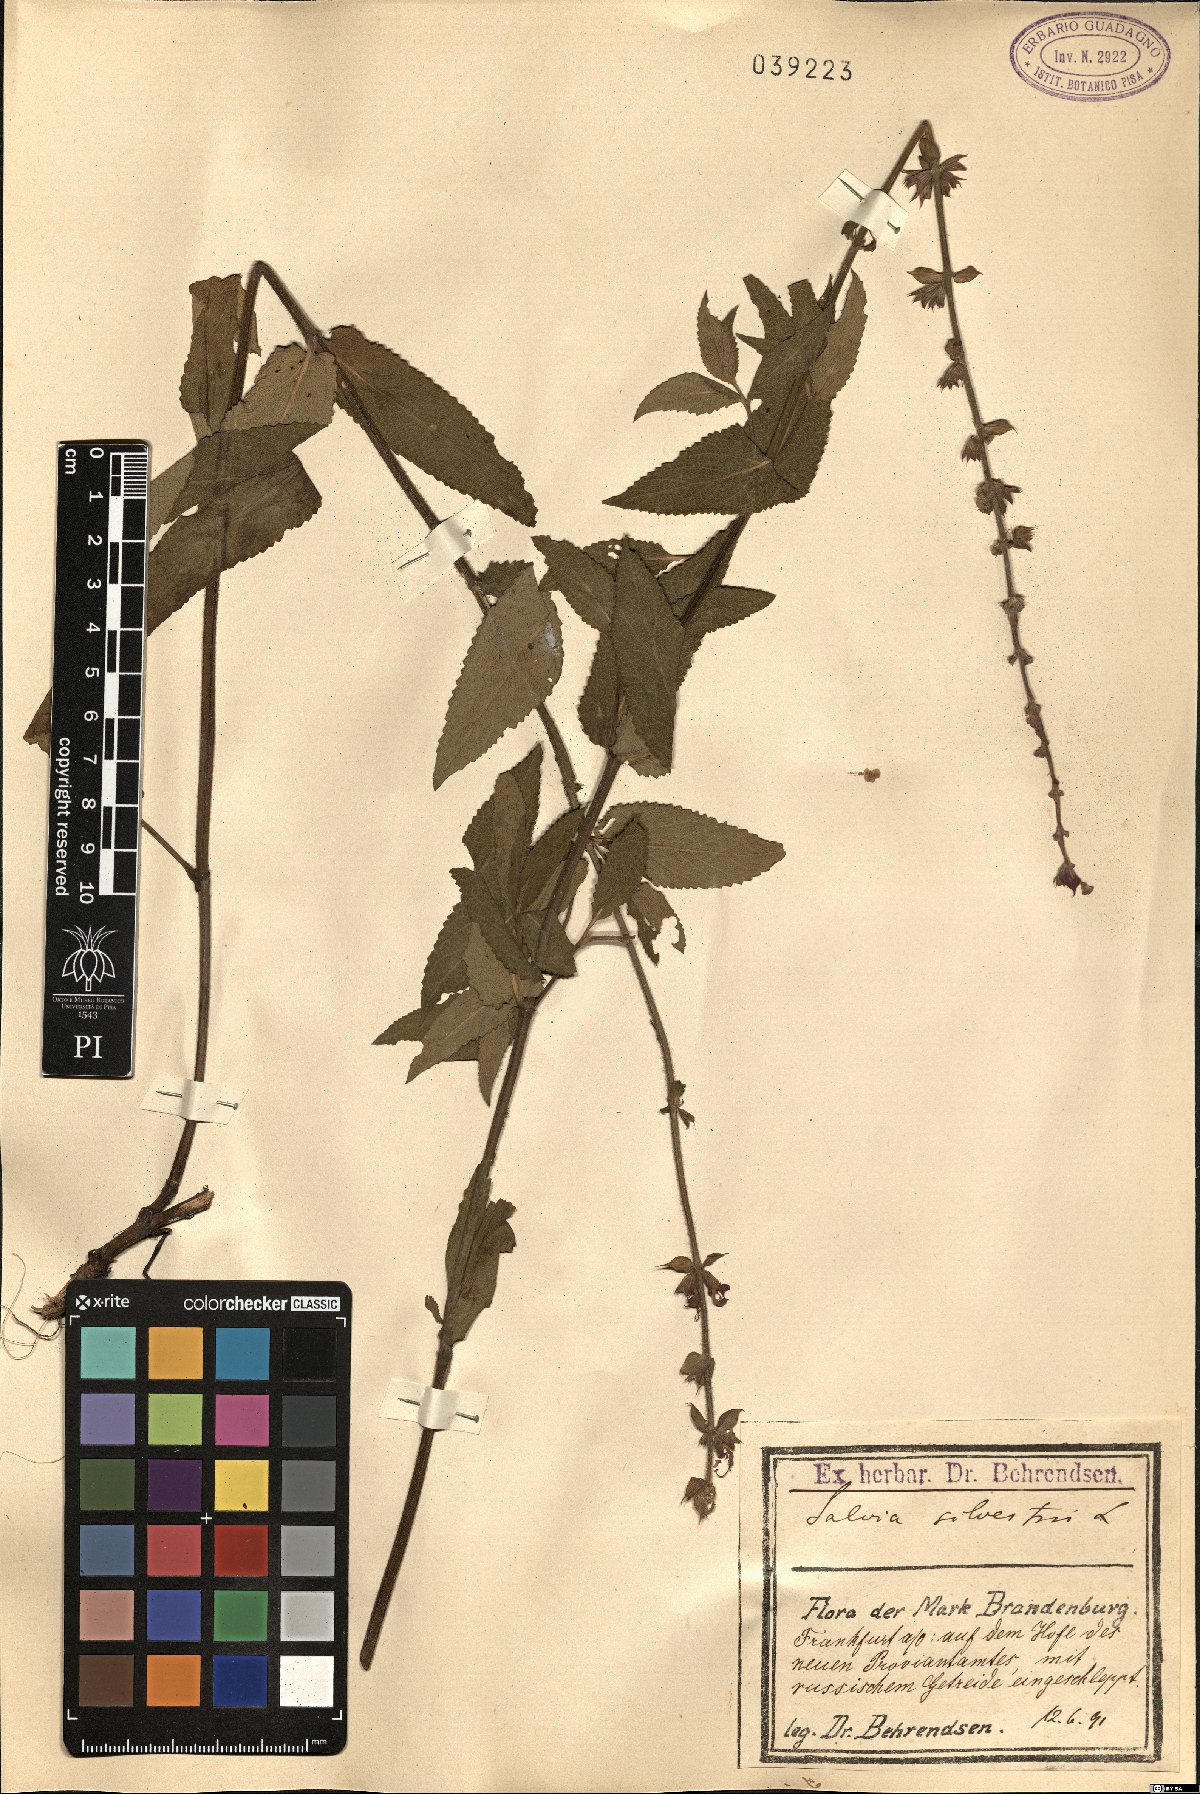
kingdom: Plantae
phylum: Tracheophyta
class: Magnoliopsida
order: Lamiales
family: Lamiaceae
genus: Salvia
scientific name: Salvia sylvestris
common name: Woodland sage
